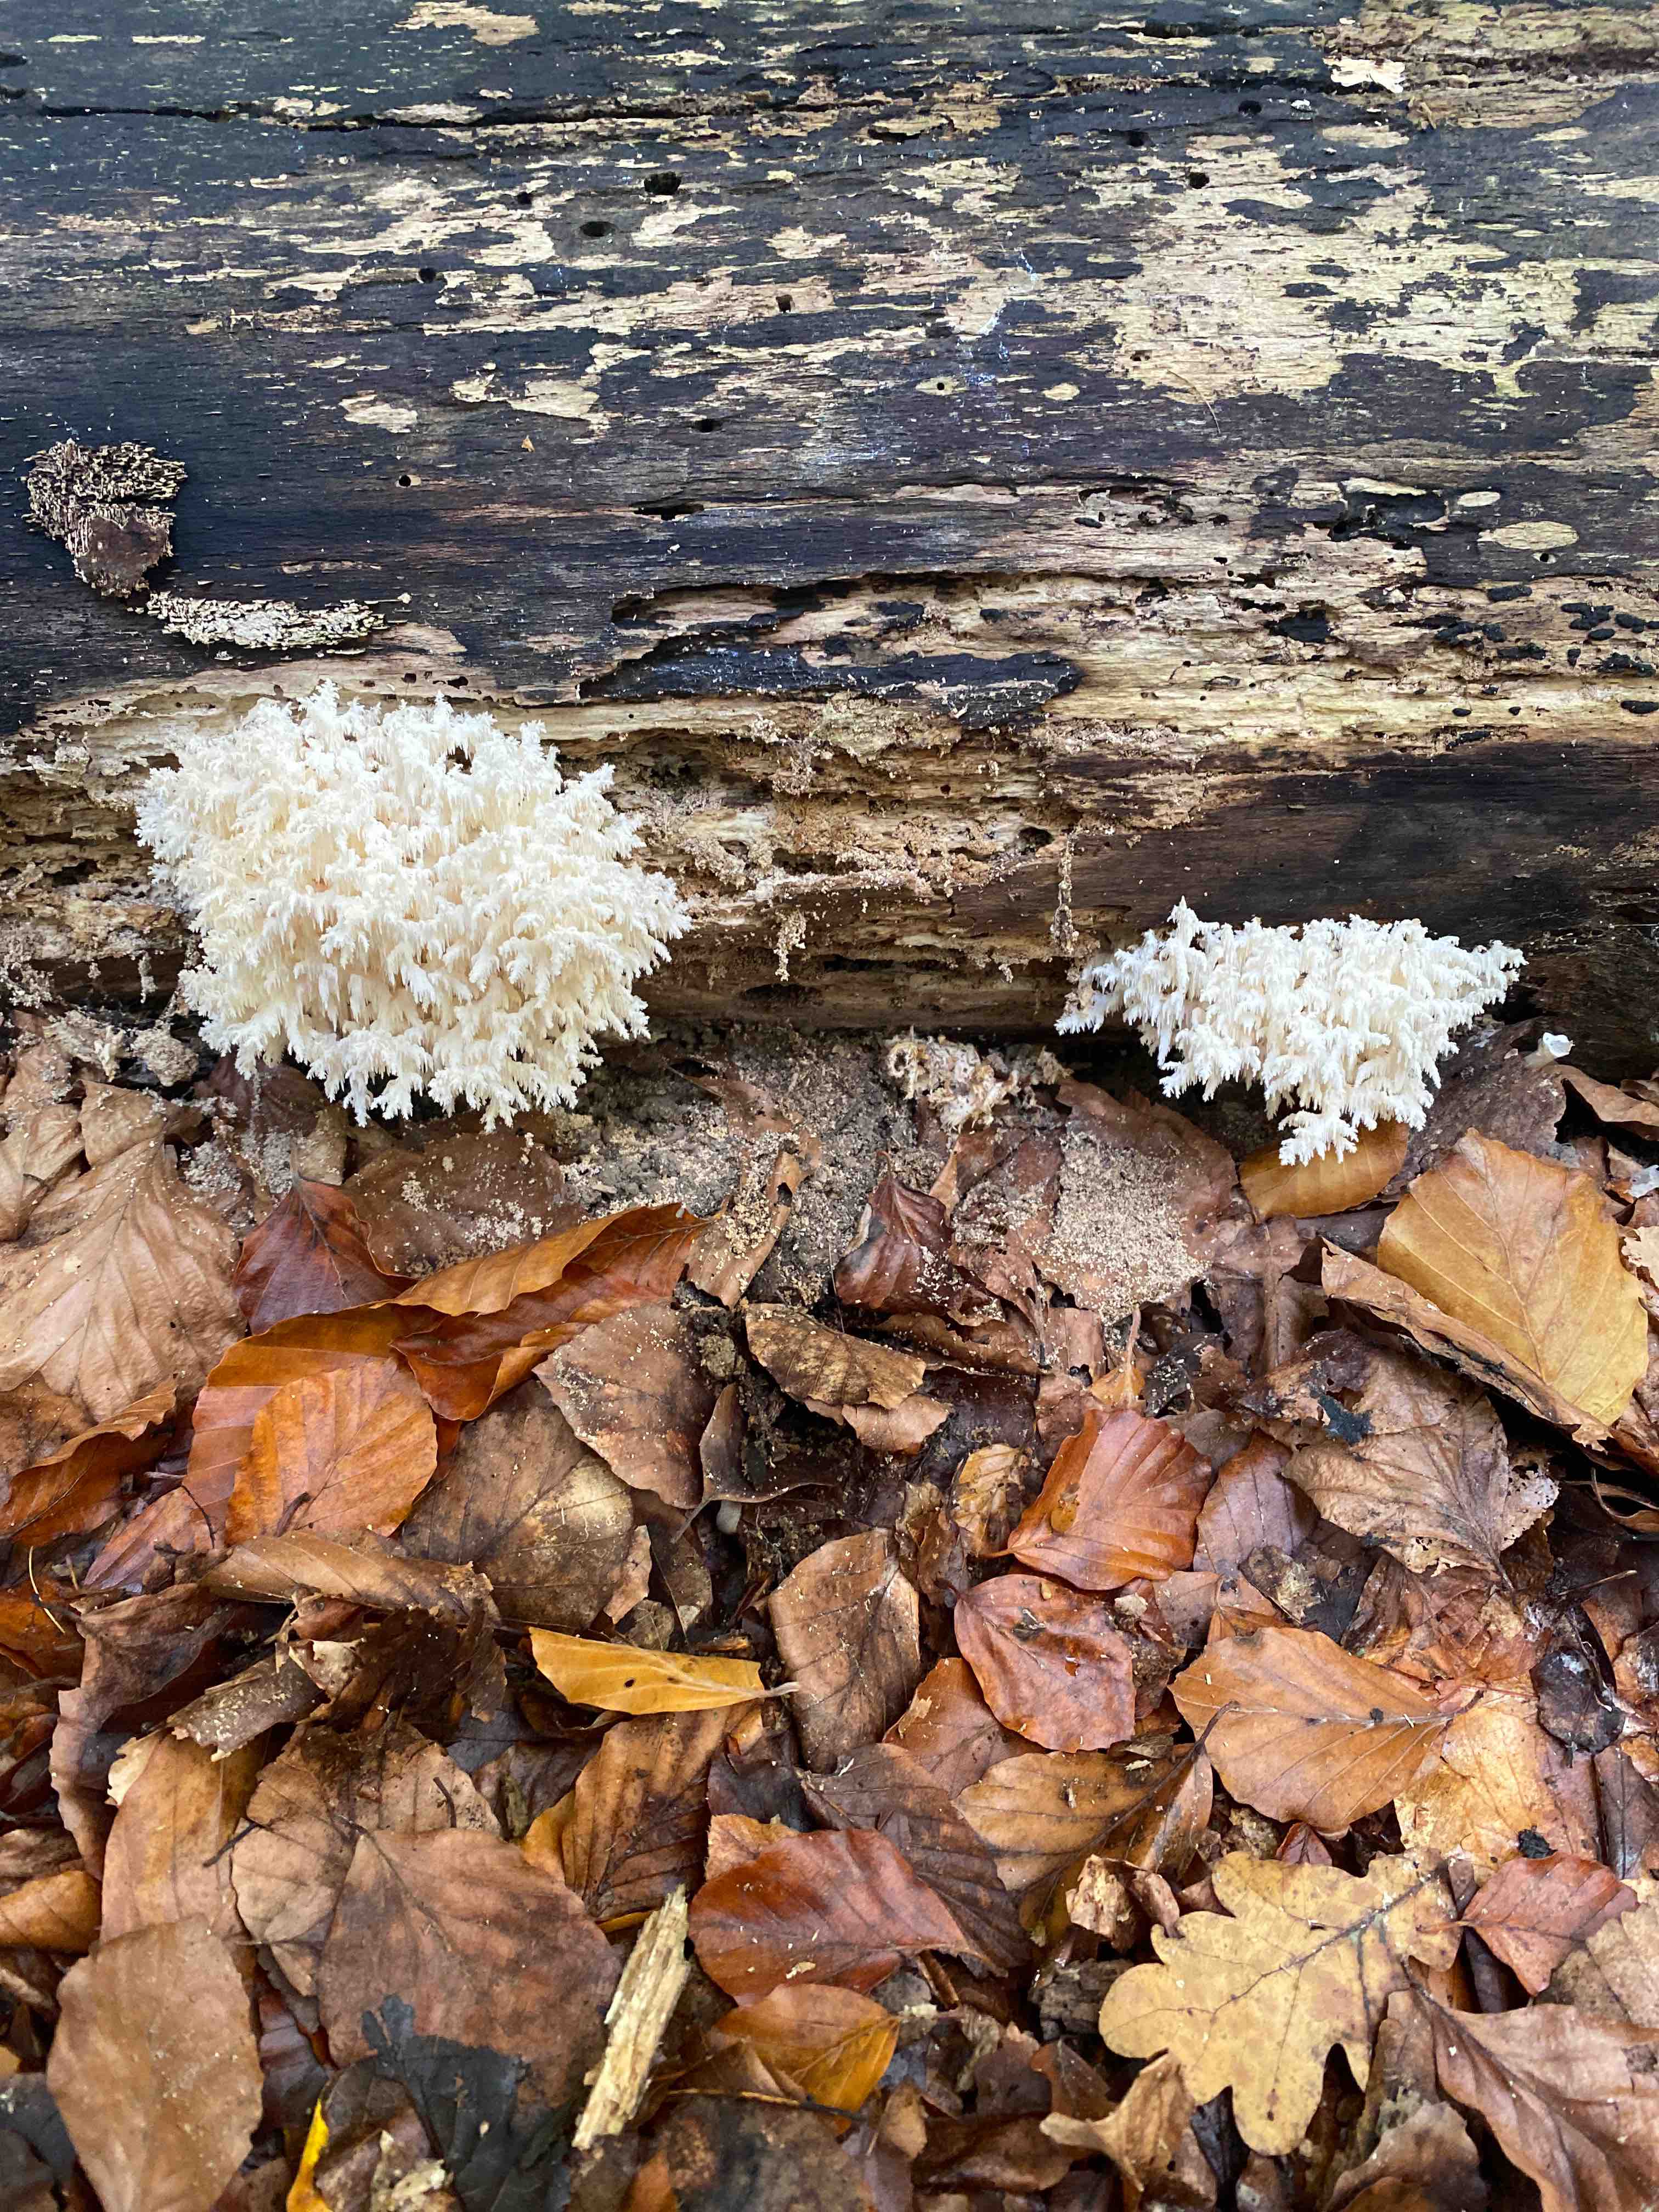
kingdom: Fungi
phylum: Basidiomycota
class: Agaricomycetes
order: Russulales
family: Hericiaceae
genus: Hericium
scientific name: Hericium coralloides
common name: koralpigsvamp
